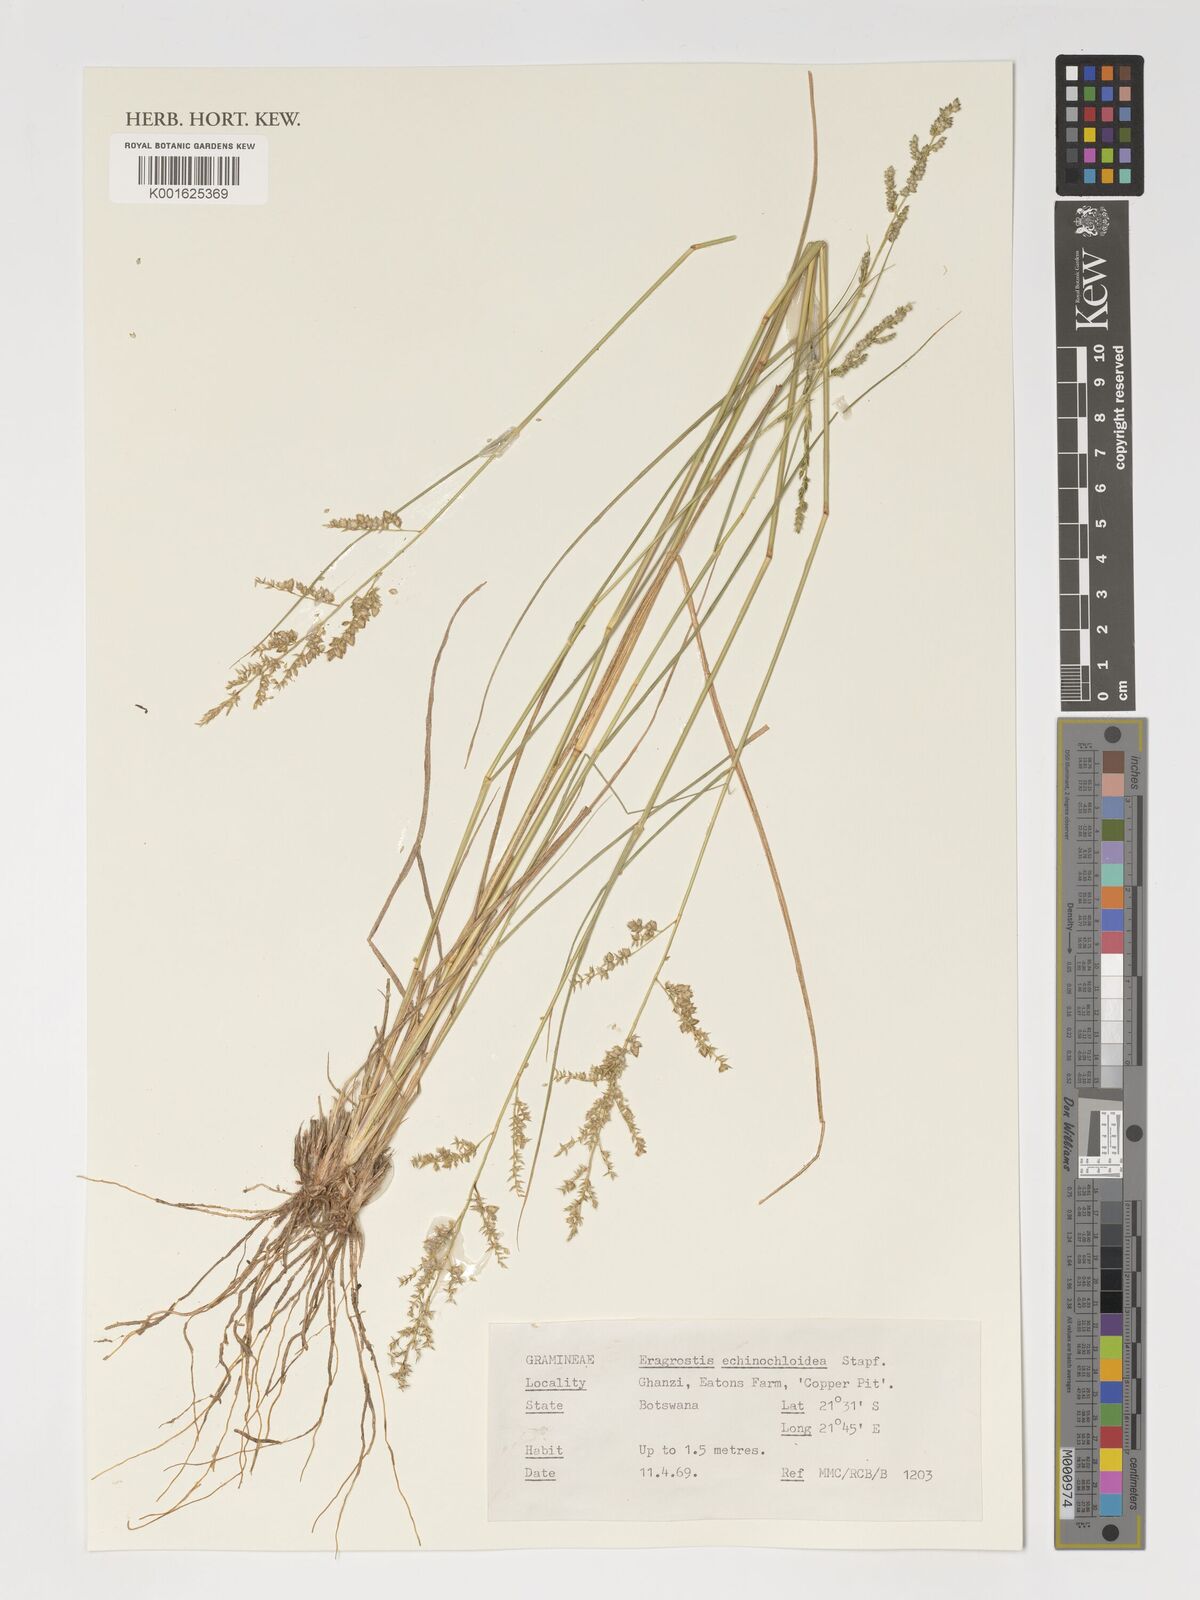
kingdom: Plantae
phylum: Tracheophyta
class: Liliopsida
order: Poales
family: Poaceae
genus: Eragrostis
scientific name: Eragrostis echinochloidea
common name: African lovegrass
